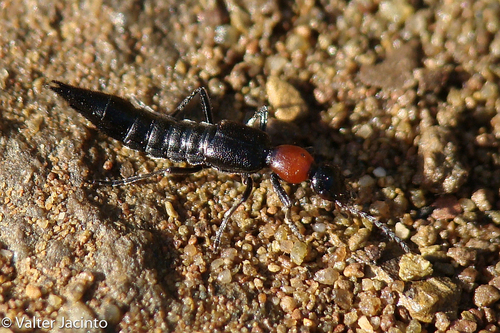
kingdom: Animalia
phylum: Arthropoda
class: Insecta
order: Coleoptera
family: Staphylinidae
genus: Paederidus
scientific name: Paederidus ruficollis
